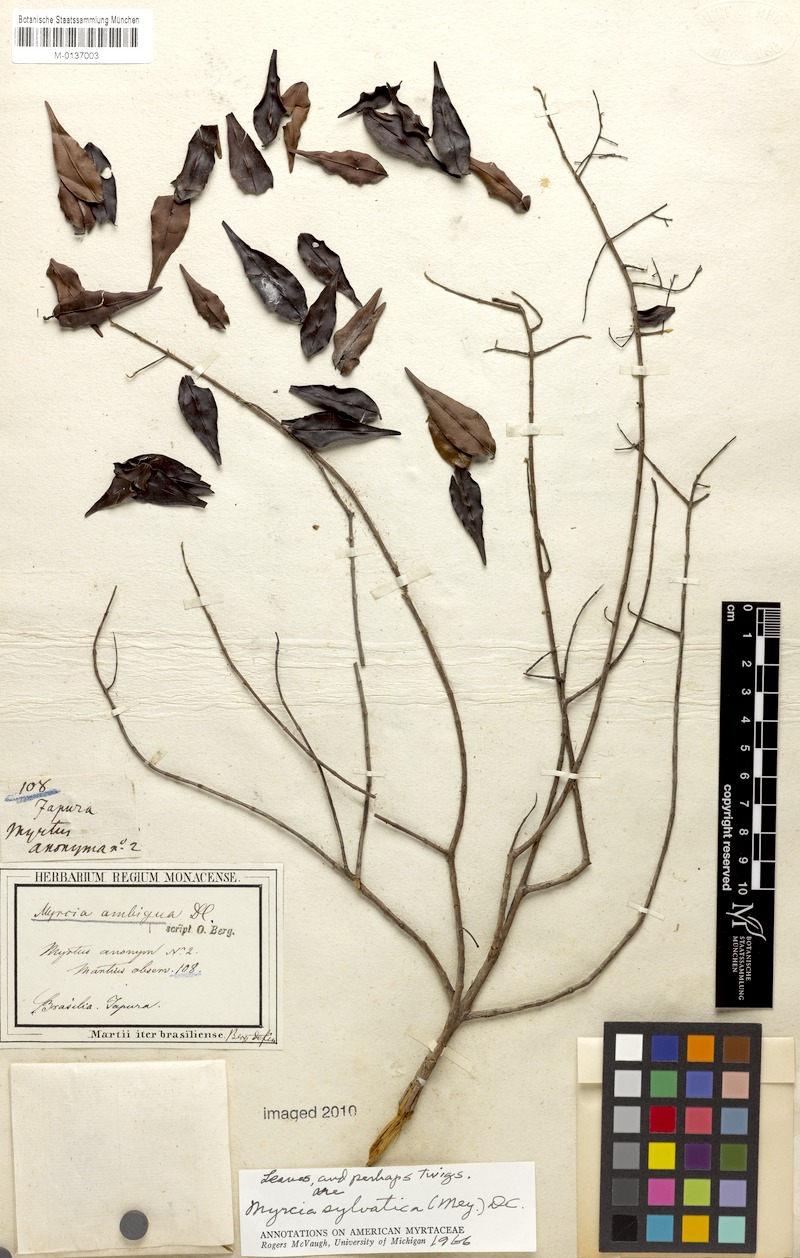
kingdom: Plantae
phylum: Tracheophyta
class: Magnoliopsida
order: Myrtales
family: Myrtaceae
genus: Myrcia
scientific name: Myrcia sylvatica
